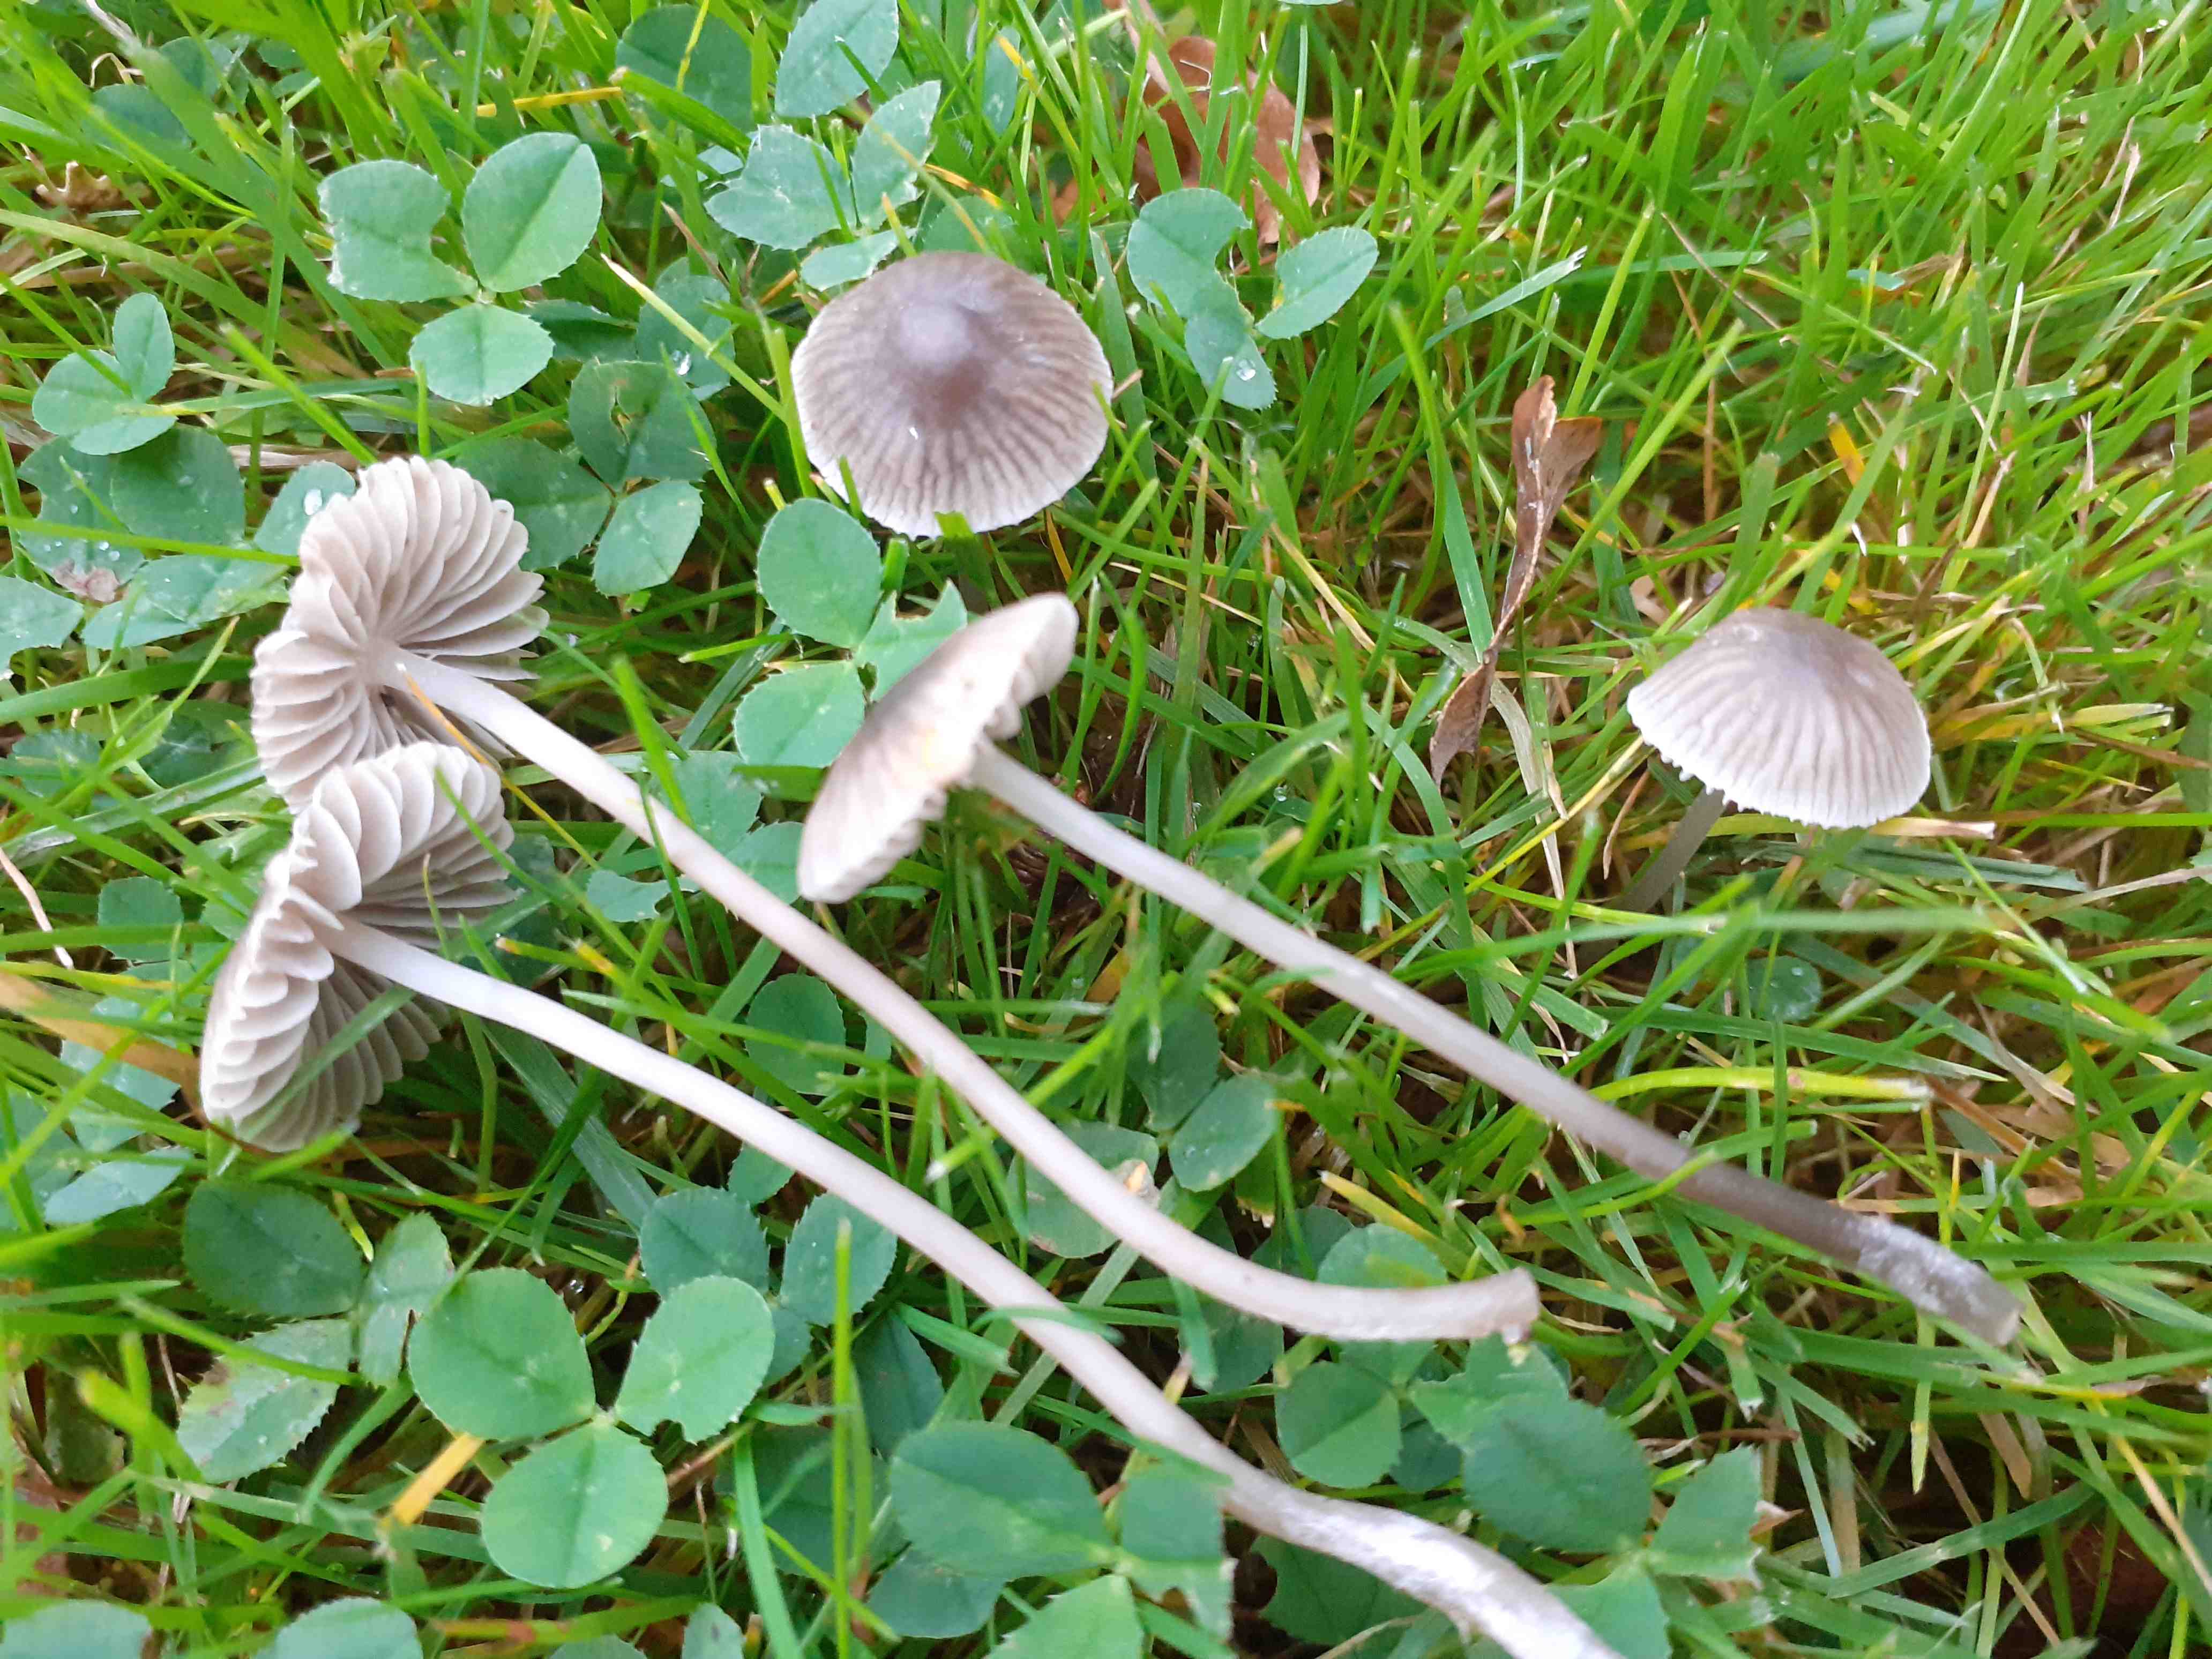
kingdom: Fungi
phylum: Basidiomycota
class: Agaricomycetes
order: Agaricales
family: Mycenaceae
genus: Mycena
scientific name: Mycena aetites
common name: plæne-huesvamp
